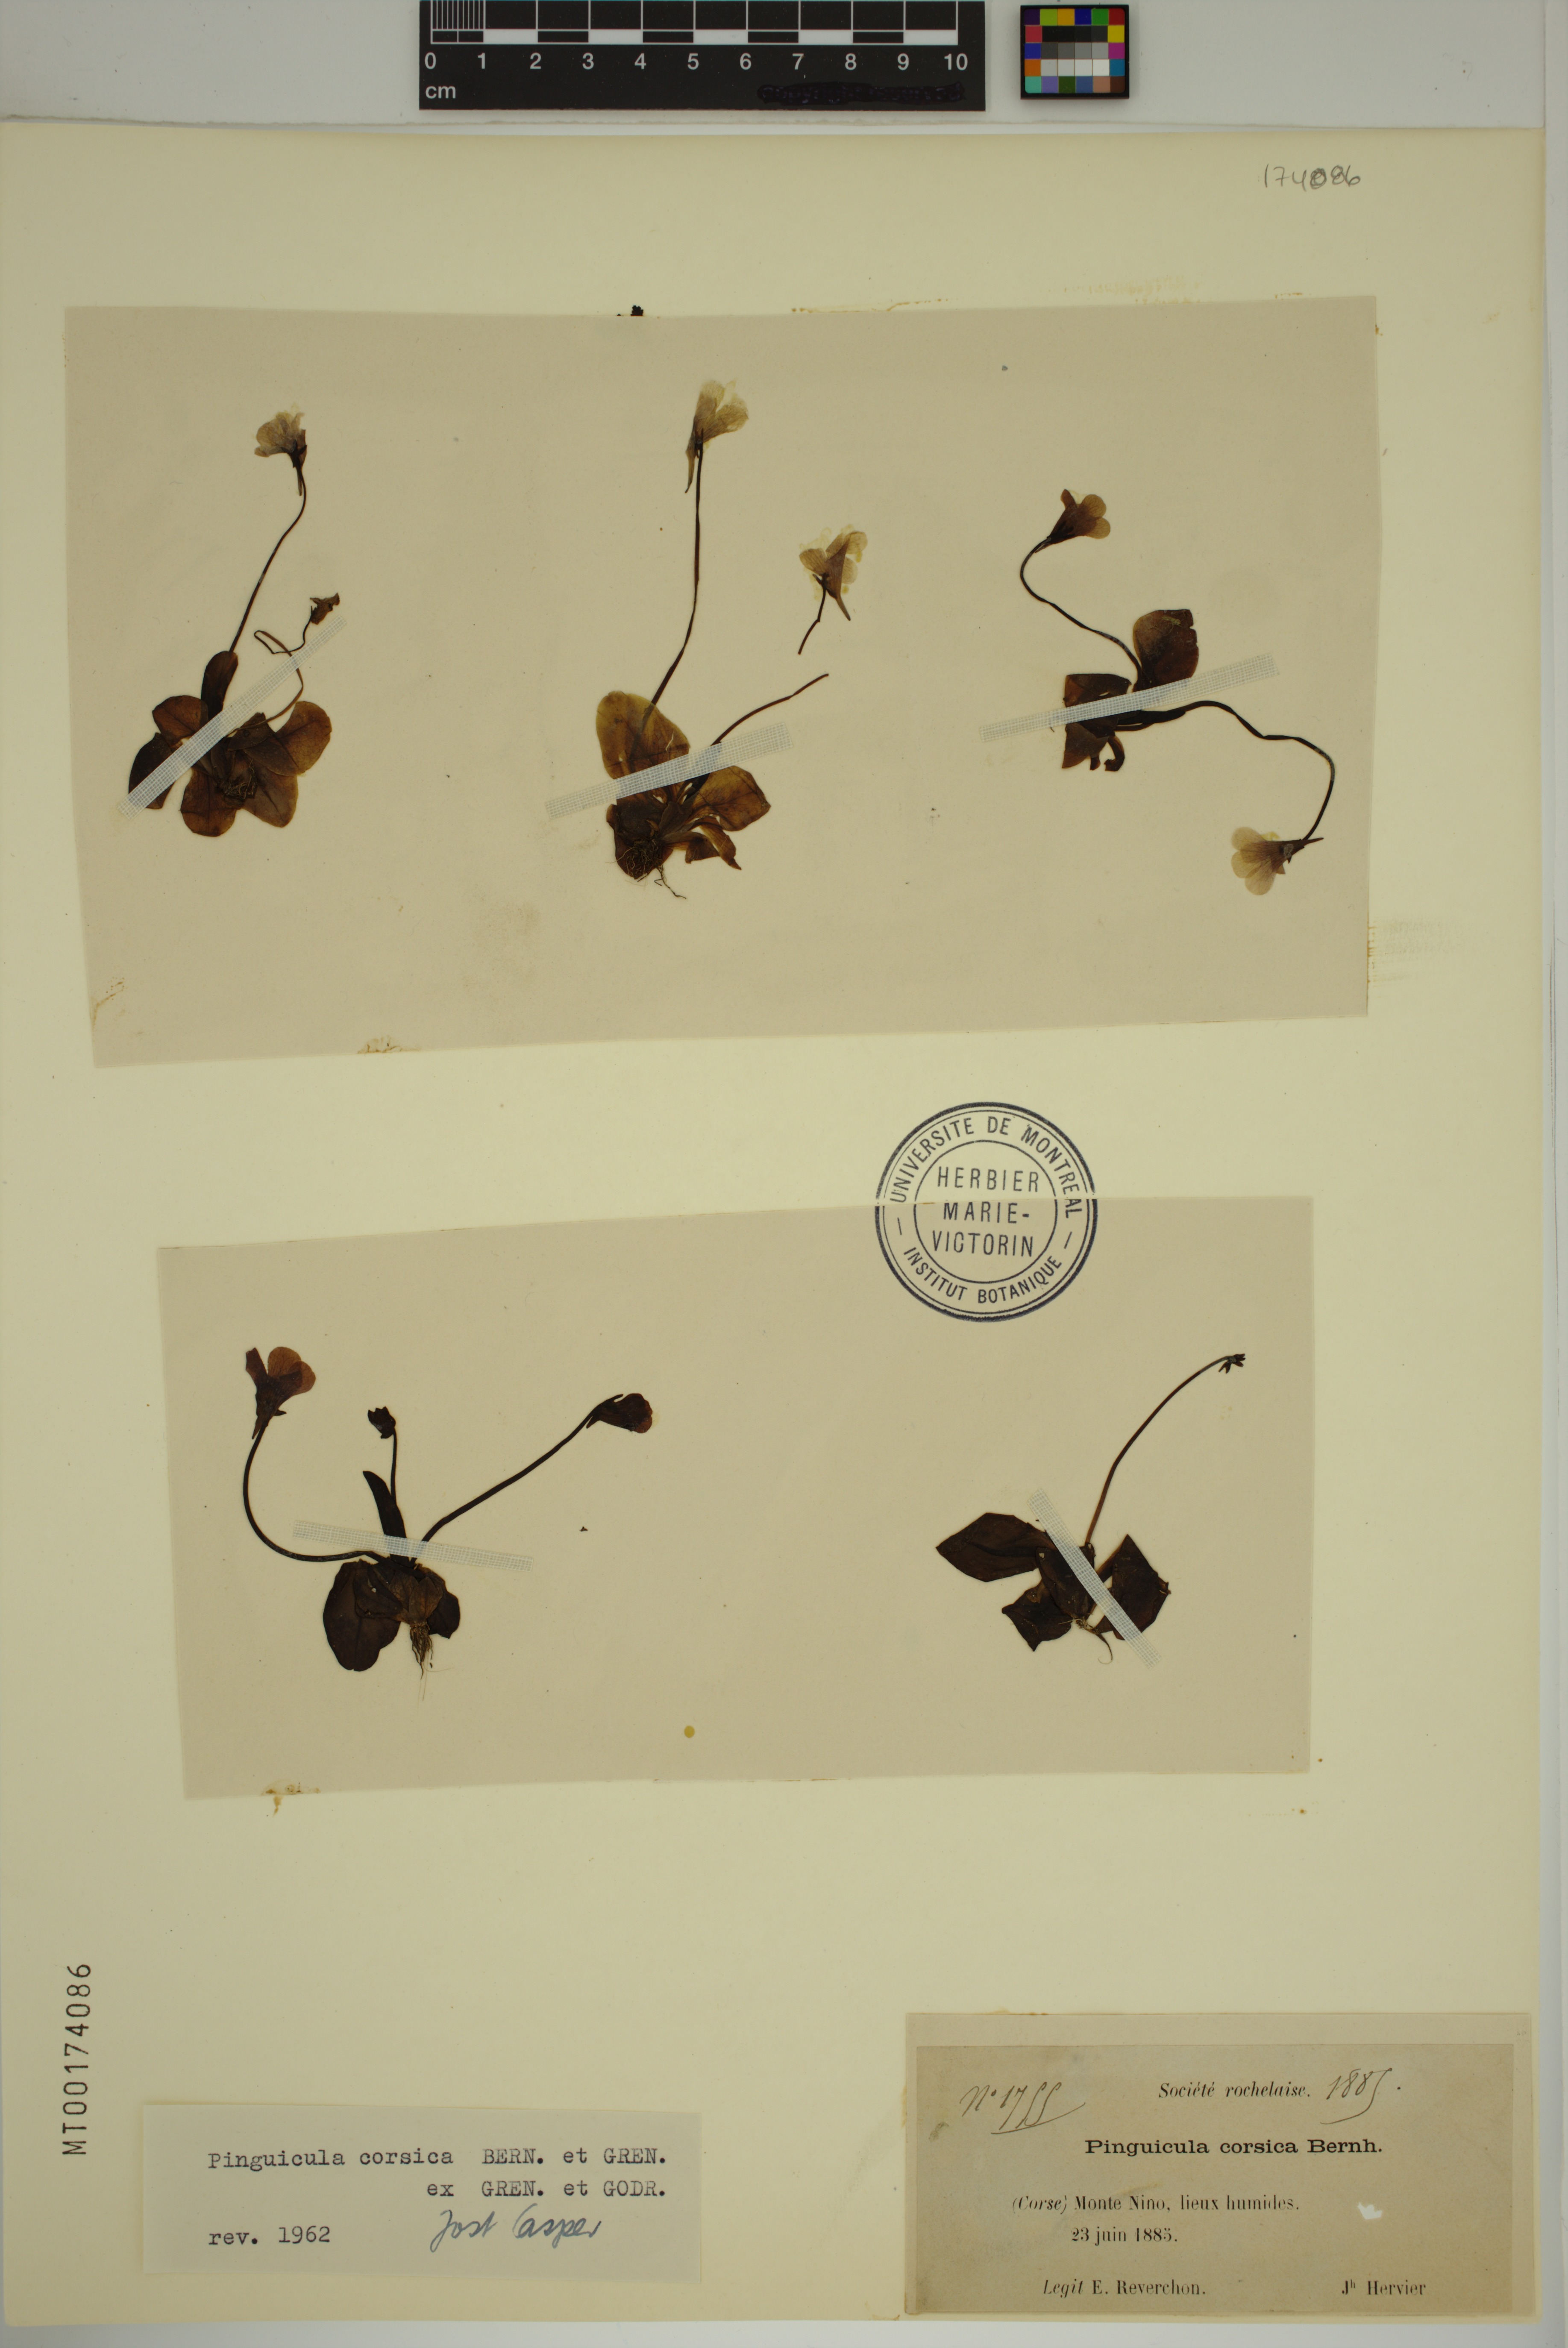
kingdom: Plantae
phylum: Tracheophyta
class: Magnoliopsida
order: Lamiales
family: Lentibulariaceae
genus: Pinguicula
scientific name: Pinguicula corsica
